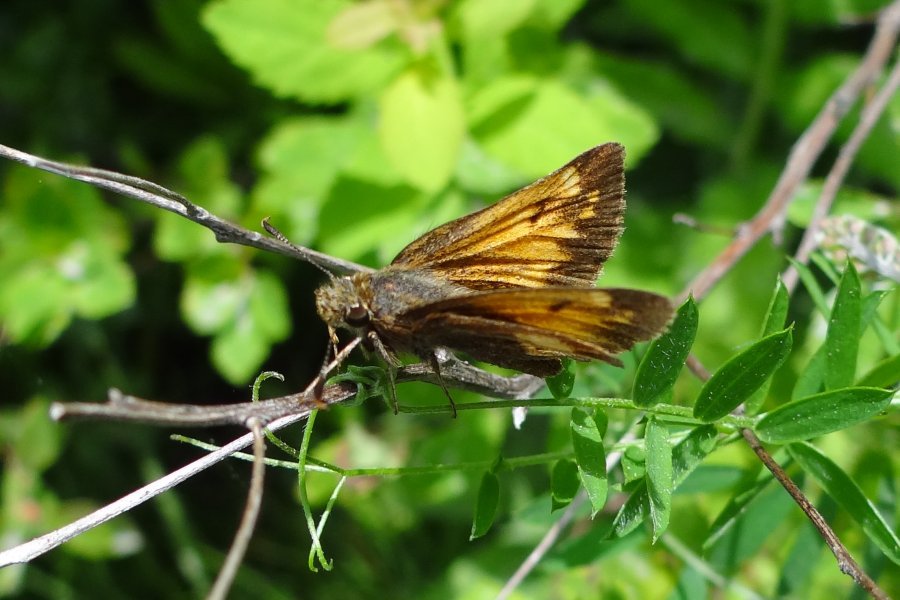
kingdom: Animalia
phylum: Arthropoda
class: Insecta
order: Lepidoptera
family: Hesperiidae
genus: Lon
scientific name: Lon hobomok
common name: Hobomok Skipper
